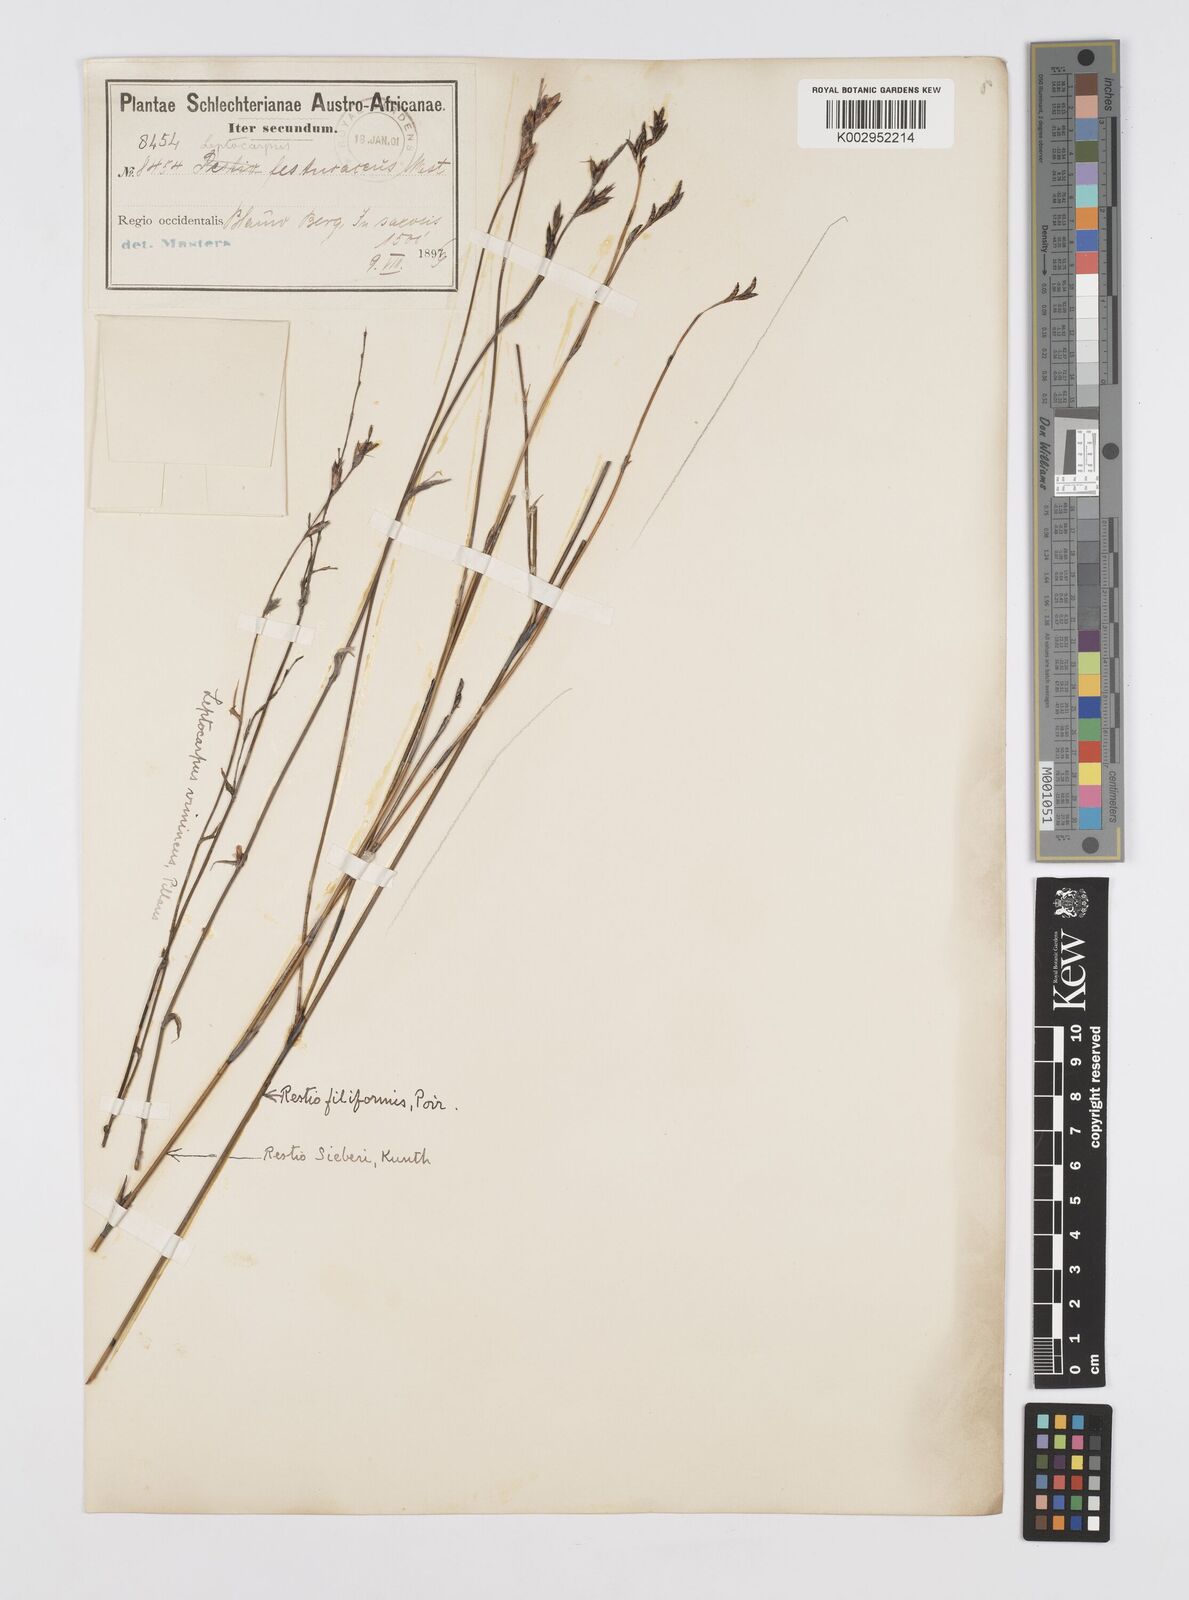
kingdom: Plantae
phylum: Tracheophyta
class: Liliopsida
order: Poales
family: Restionaceae
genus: Restio
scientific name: Restio vimineus
